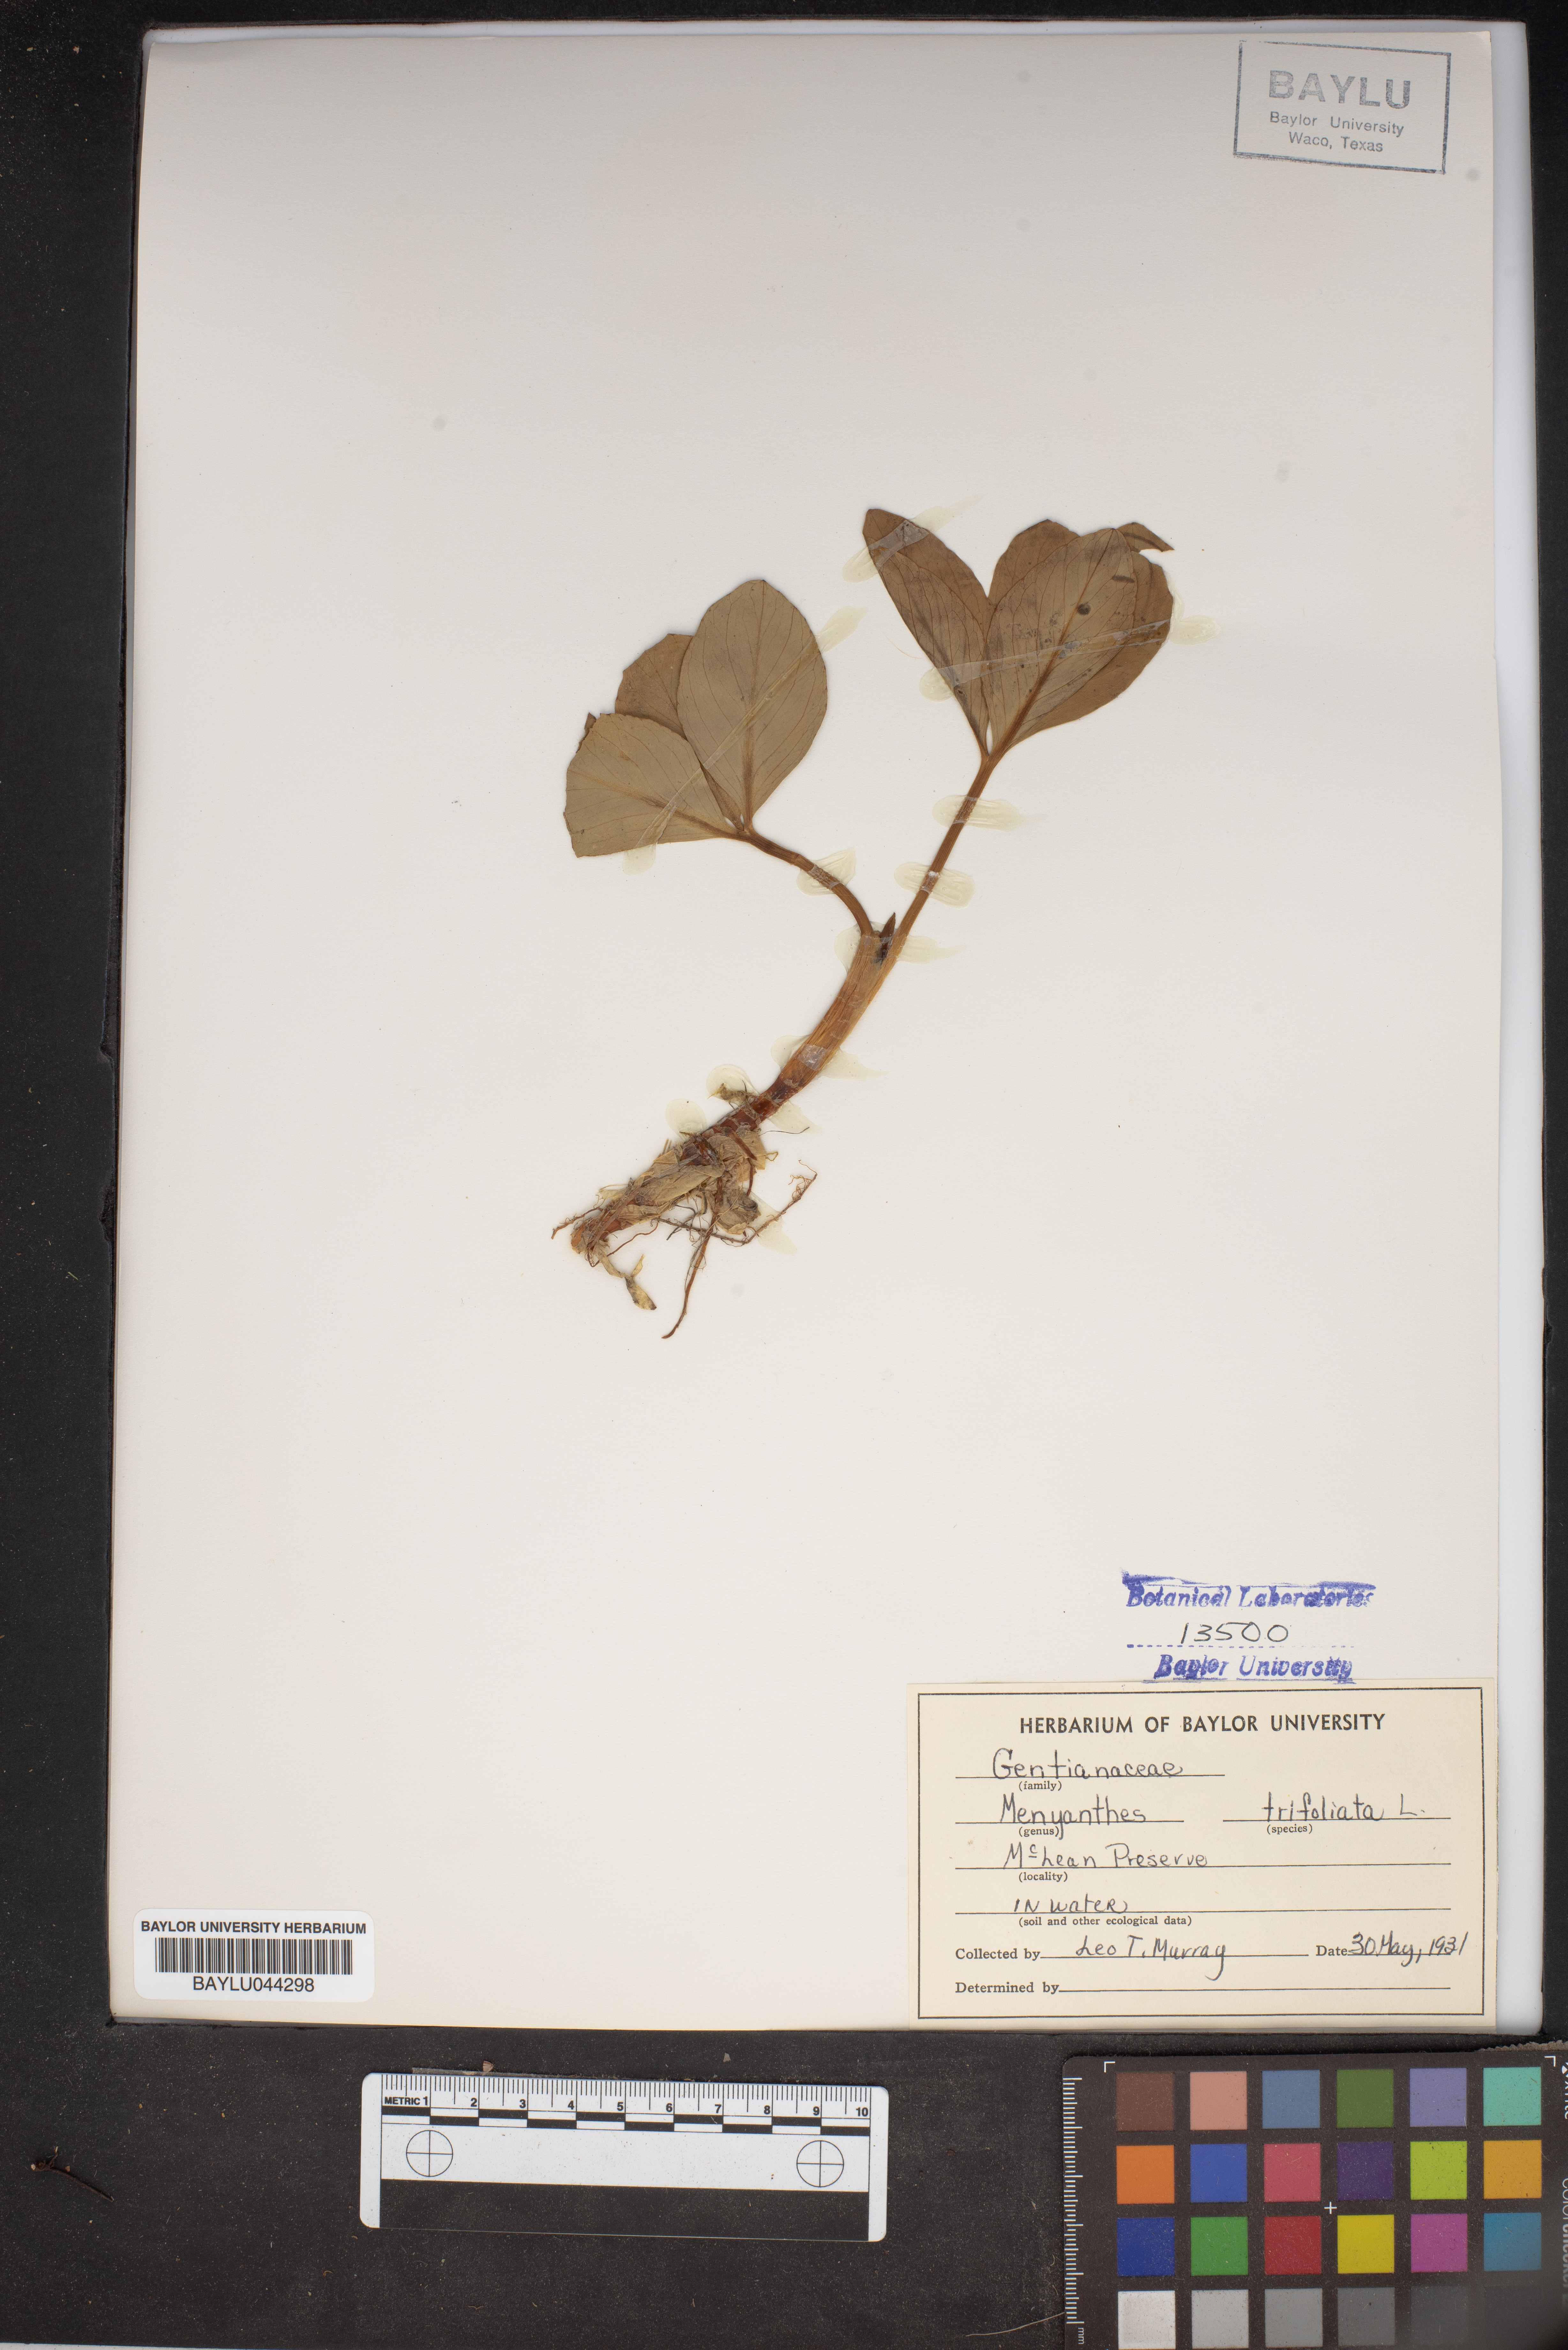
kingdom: Plantae
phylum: Tracheophyta
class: Magnoliopsida
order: Asterales
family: Menyanthaceae
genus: Menyanthes
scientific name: Menyanthes trifoliata
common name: Bogbean
